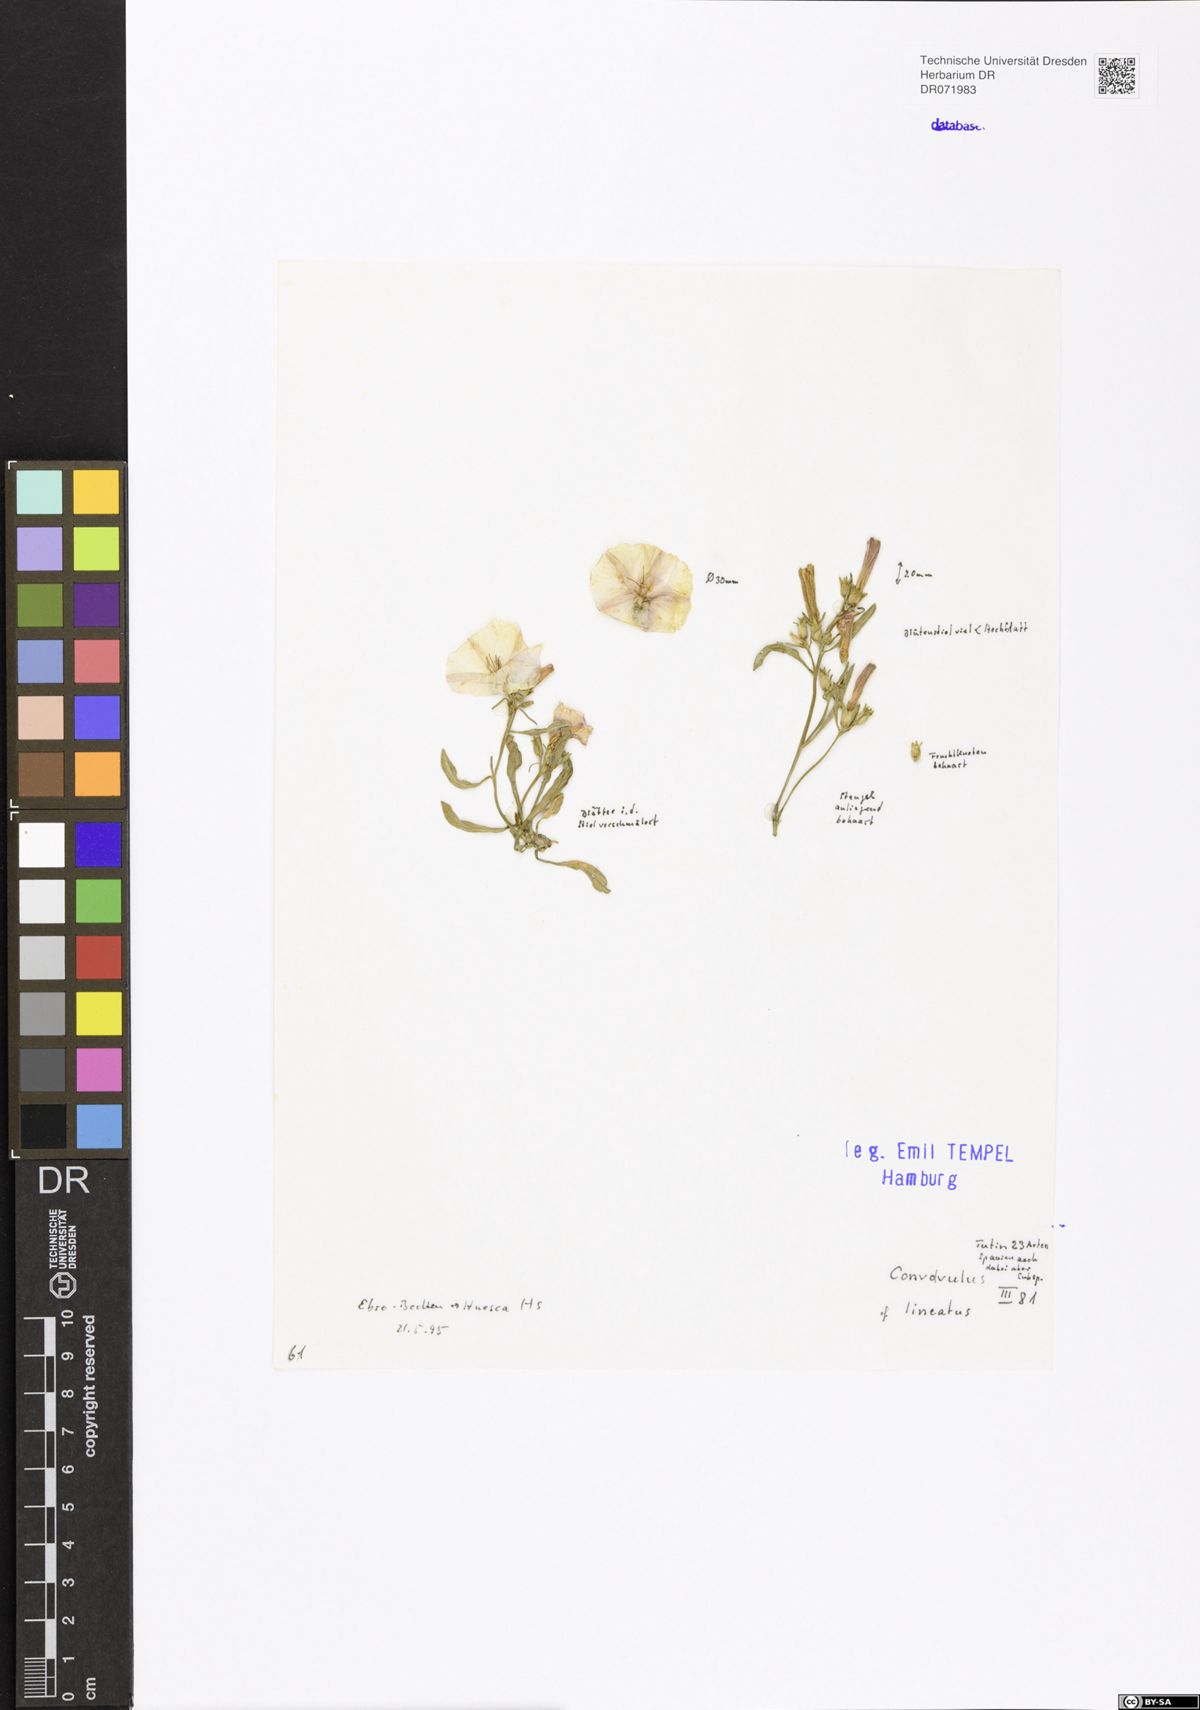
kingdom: Plantae
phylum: Tracheophyta
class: Magnoliopsida
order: Solanales
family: Convolvulaceae
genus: Convolvulus
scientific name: Convolvulus lineatus
